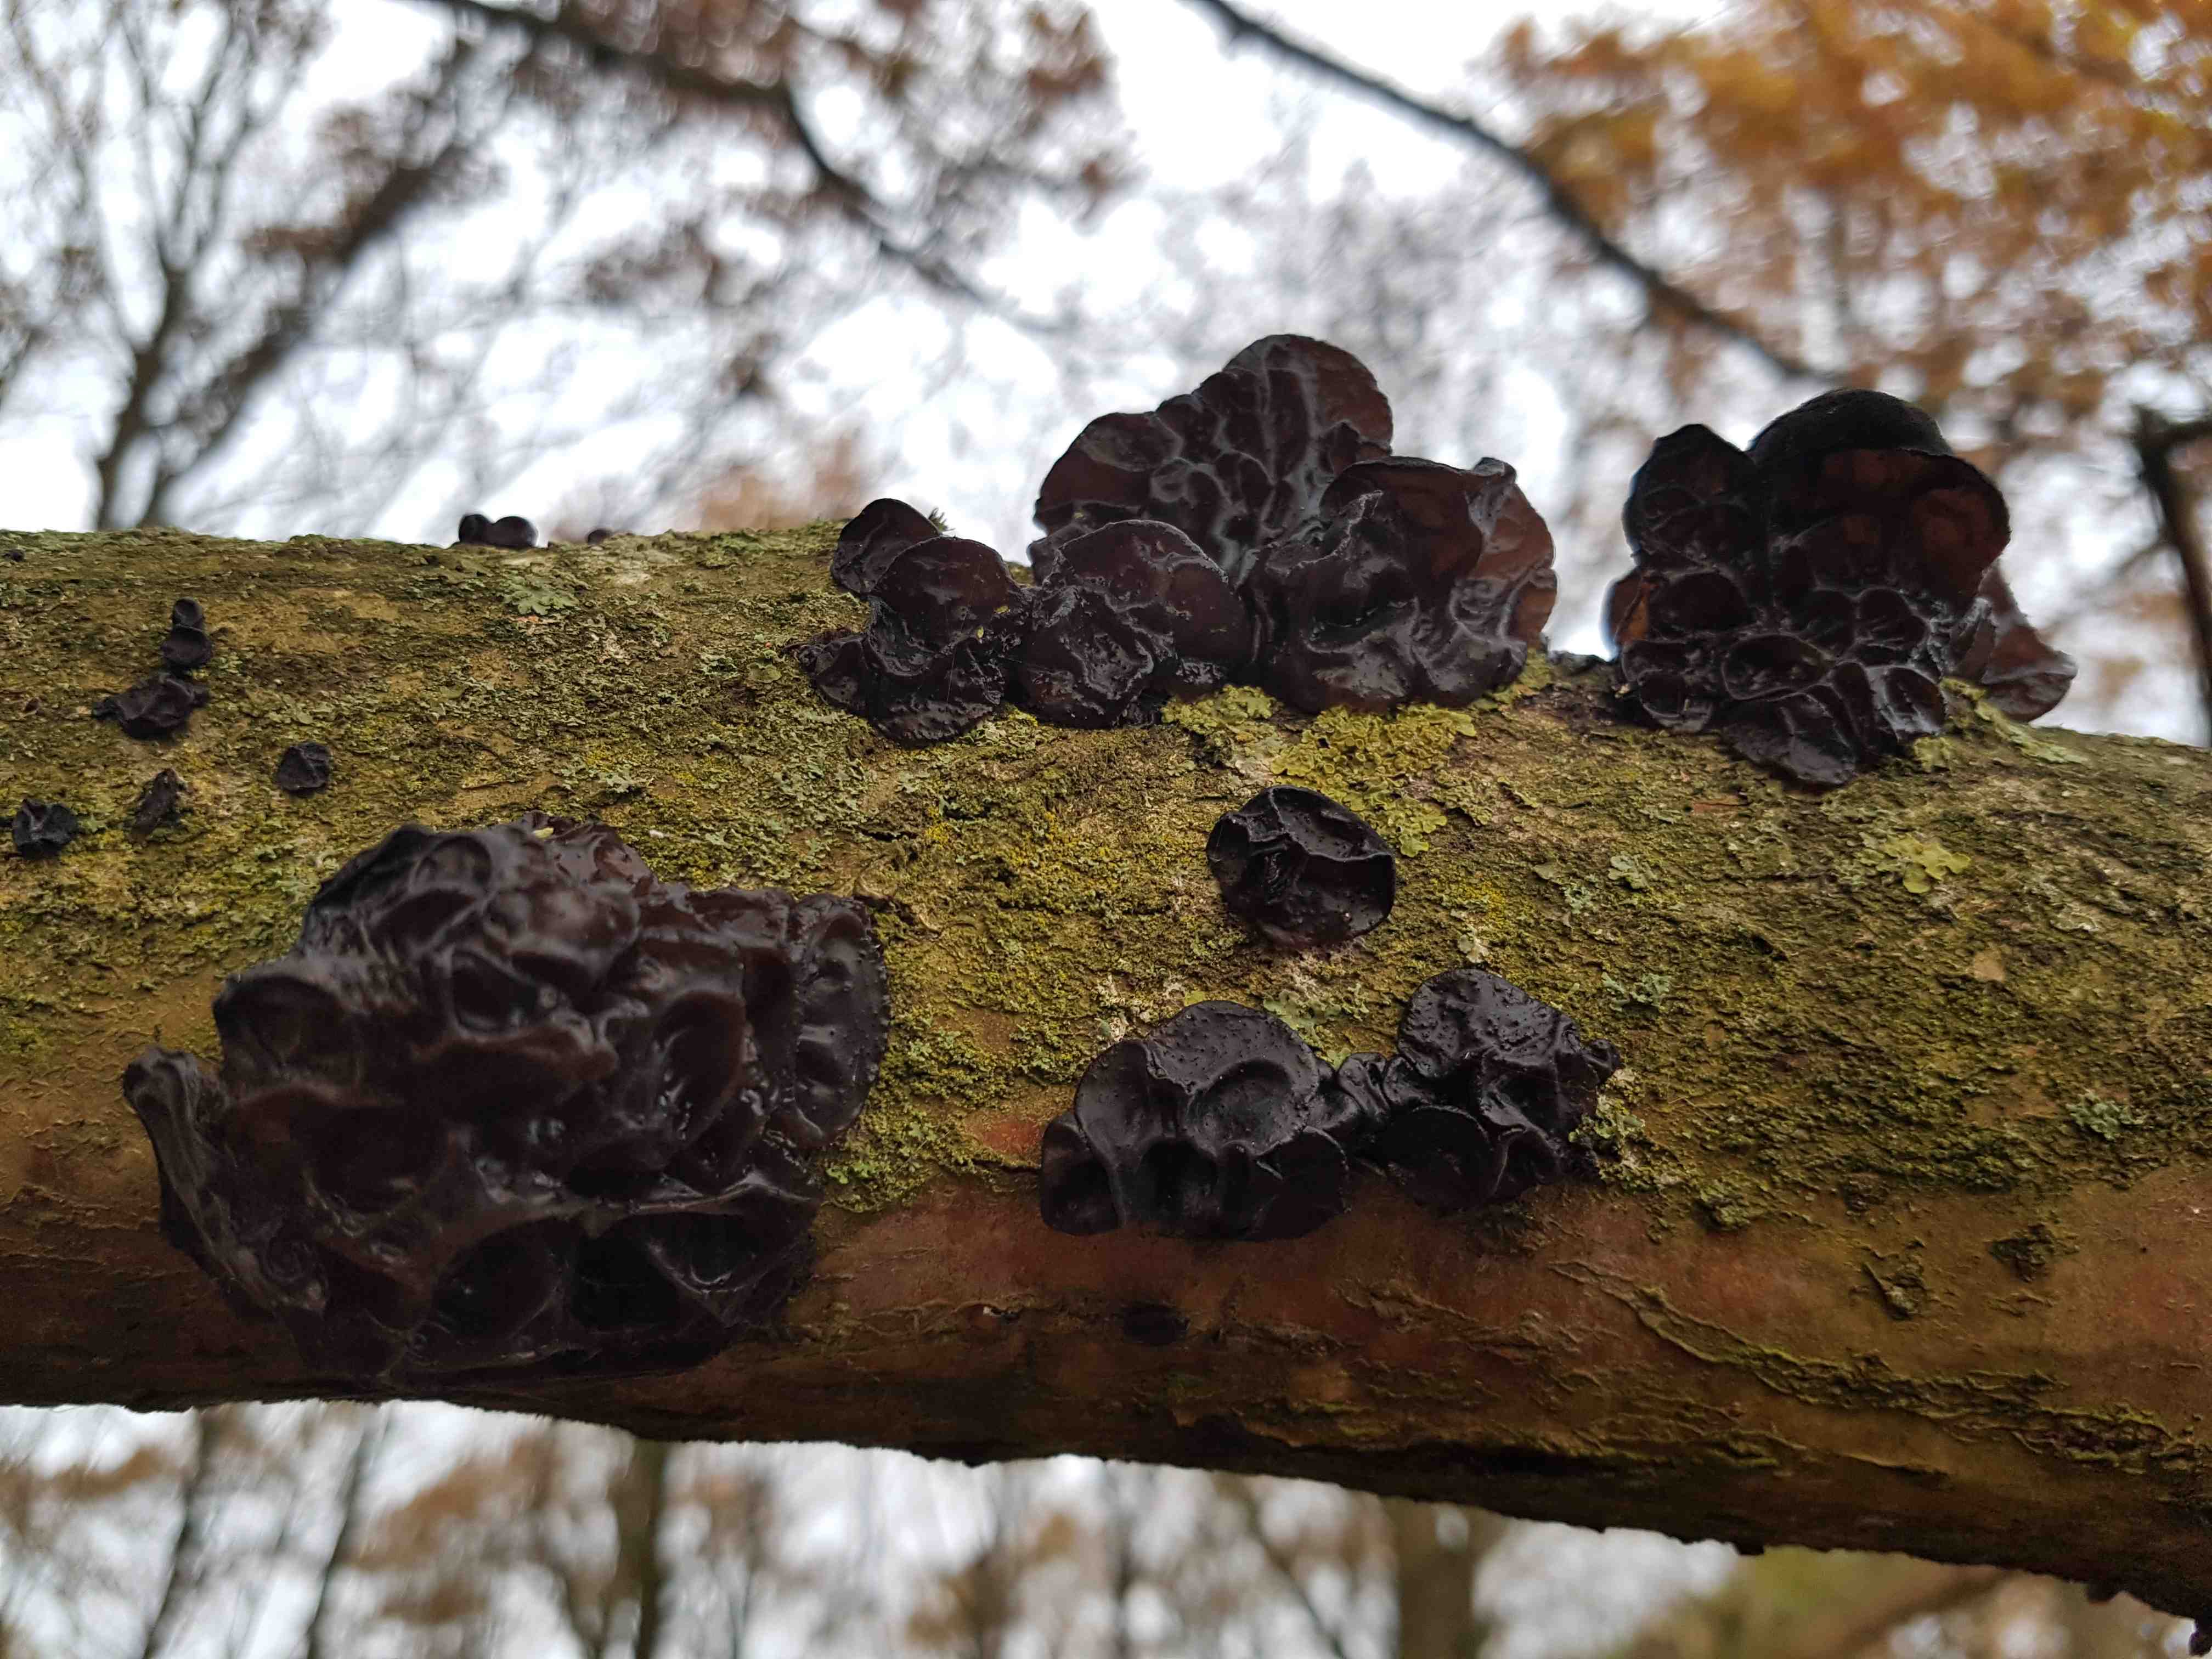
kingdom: Fungi
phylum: Basidiomycota
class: Agaricomycetes
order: Auriculariales
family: Auriculariaceae
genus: Exidia
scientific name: Exidia nigricans
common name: almindelig bævretop
